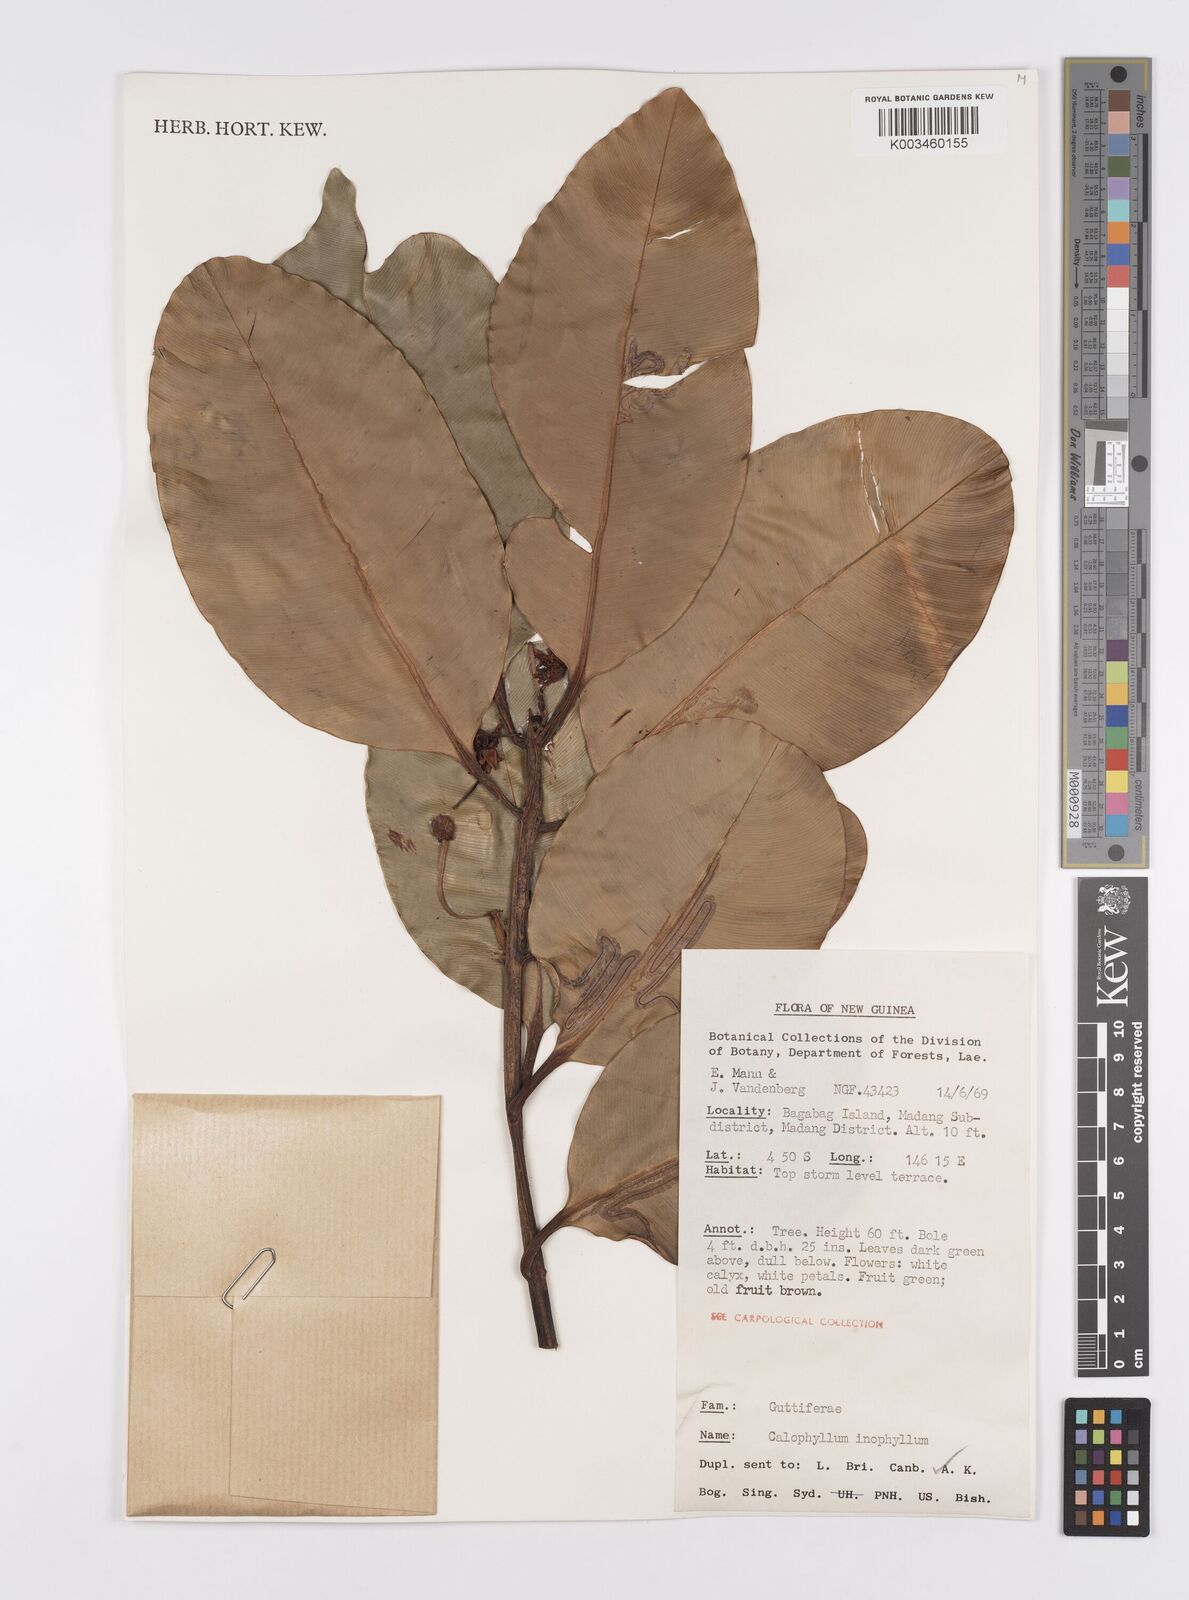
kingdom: Plantae
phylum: Tracheophyta
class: Magnoliopsida
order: Malpighiales
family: Calophyllaceae
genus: Calophyllum
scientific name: Calophyllum inophyllum
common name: Alexandrian laurel
